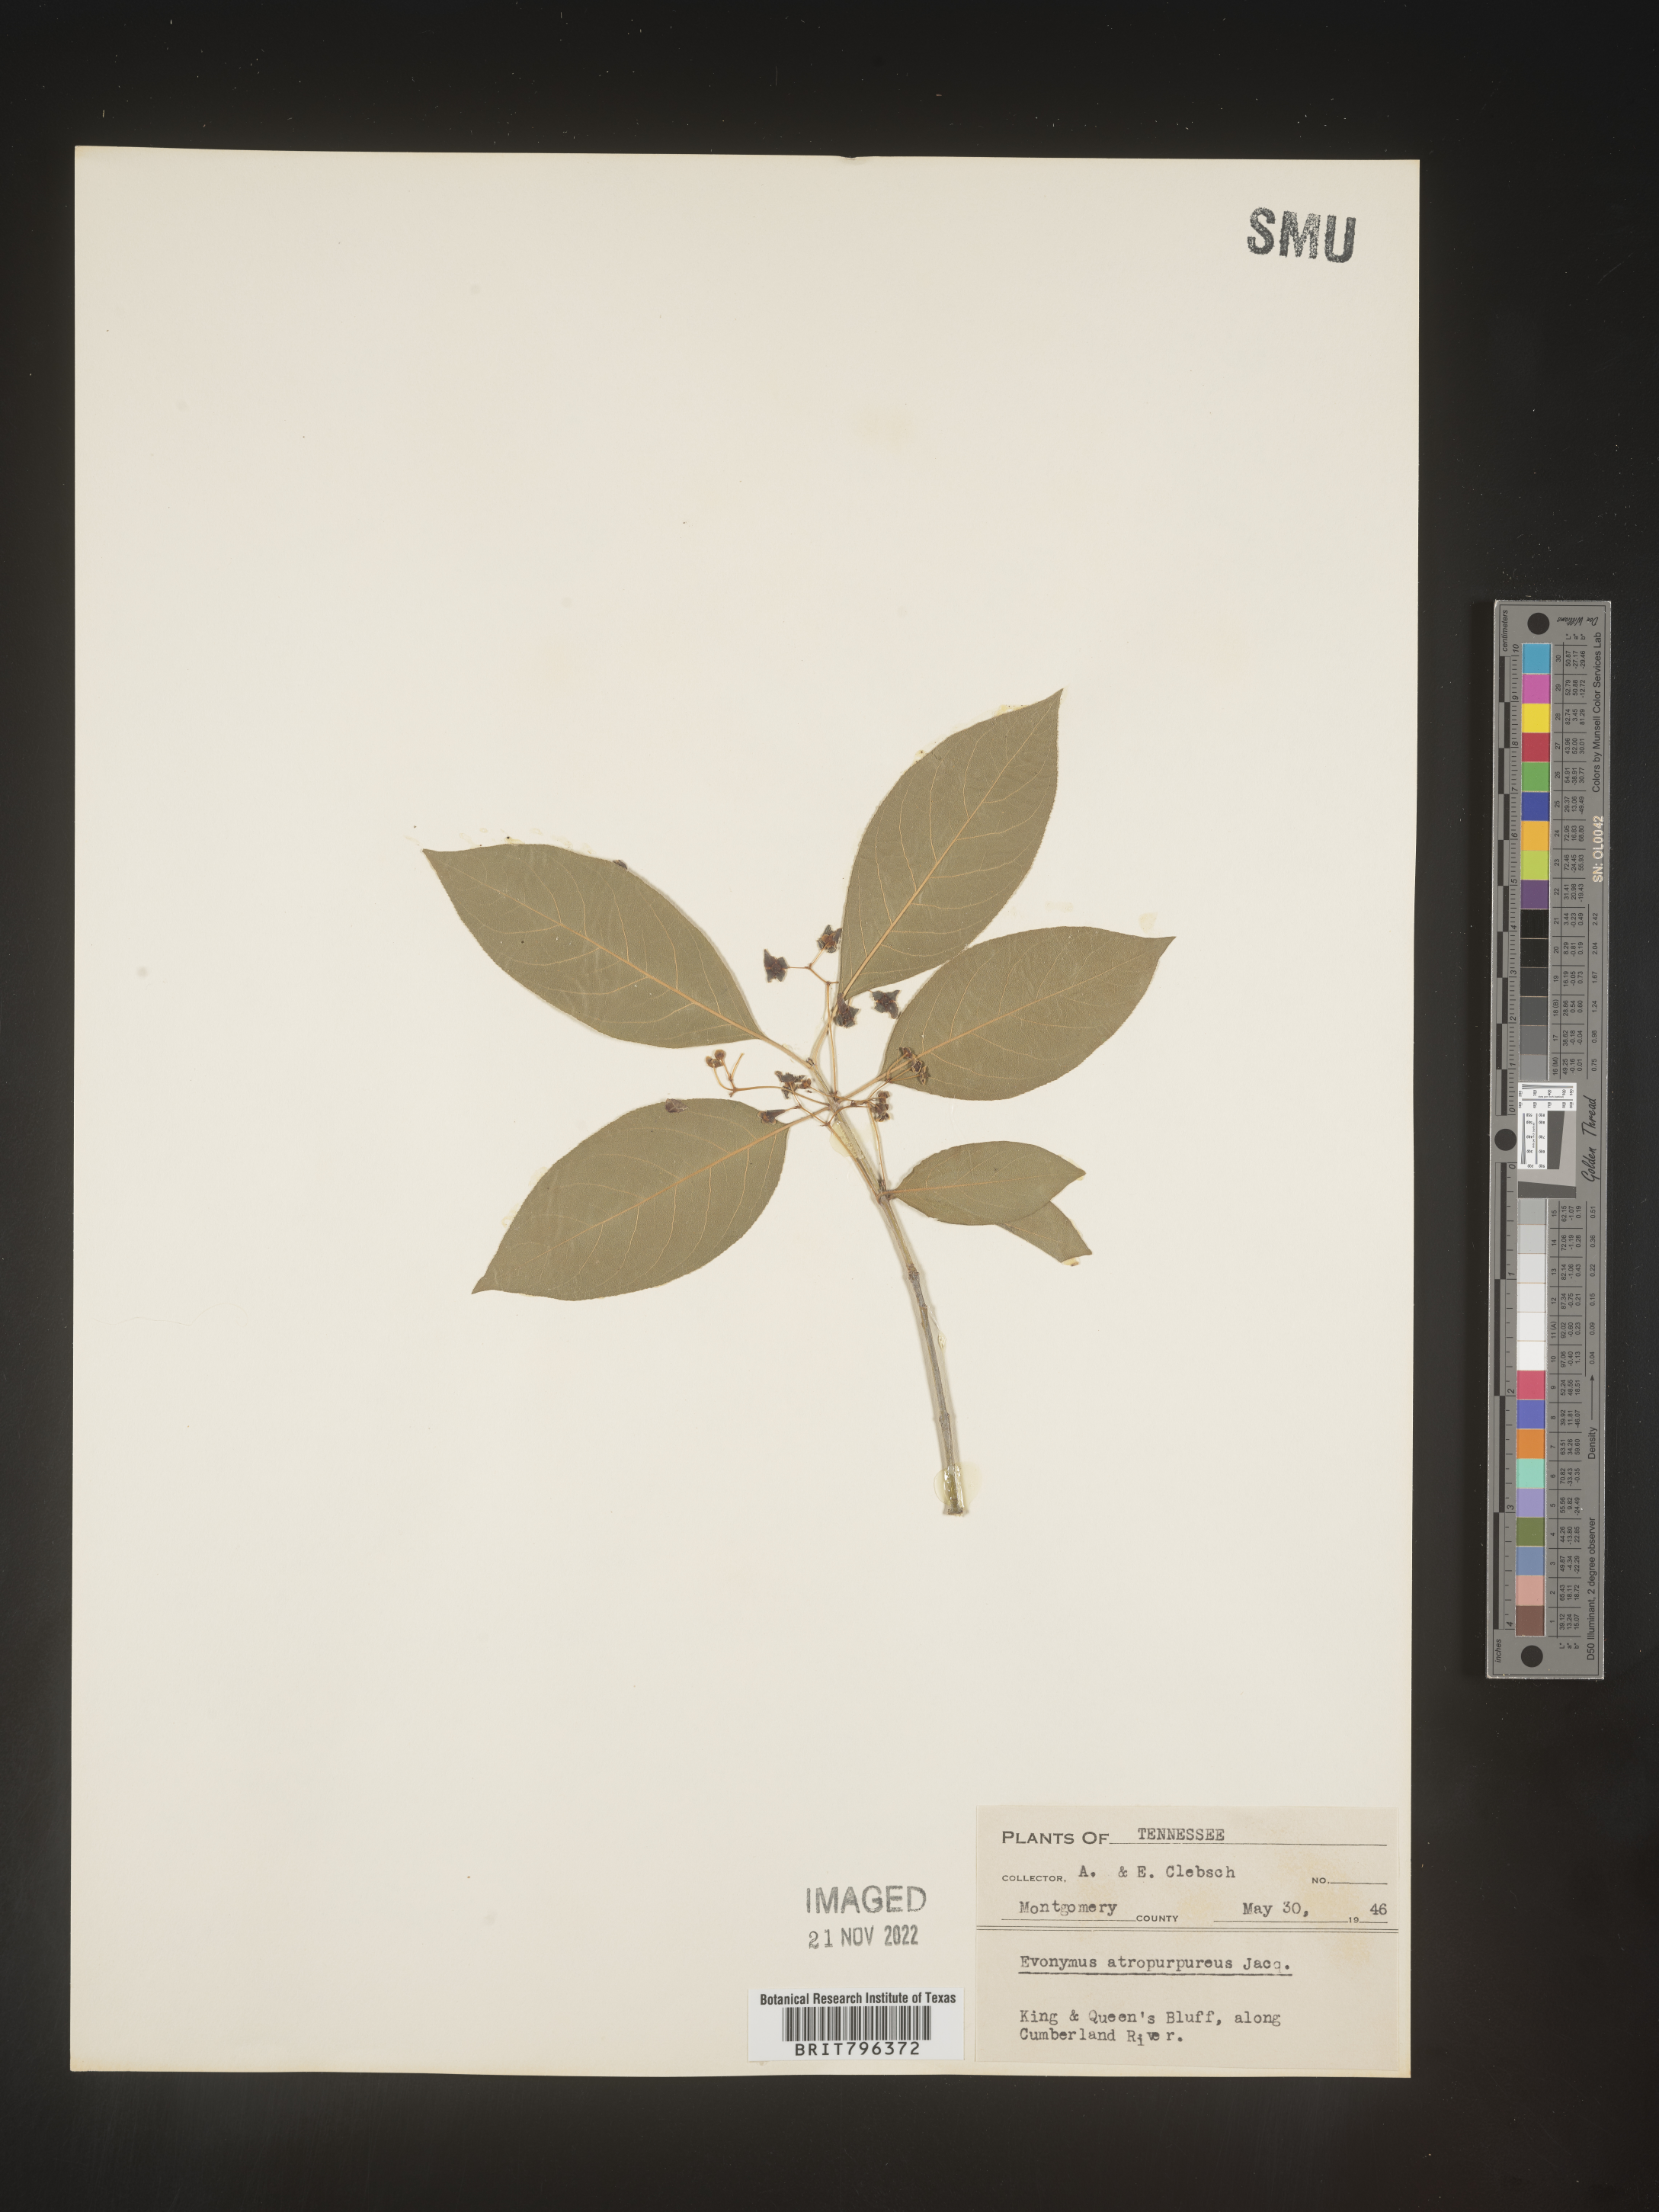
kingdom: Plantae
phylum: Tracheophyta
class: Magnoliopsida
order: Celastrales
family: Celastraceae
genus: Euonymus
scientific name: Euonymus atropurpureus
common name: Eastern wahoo
